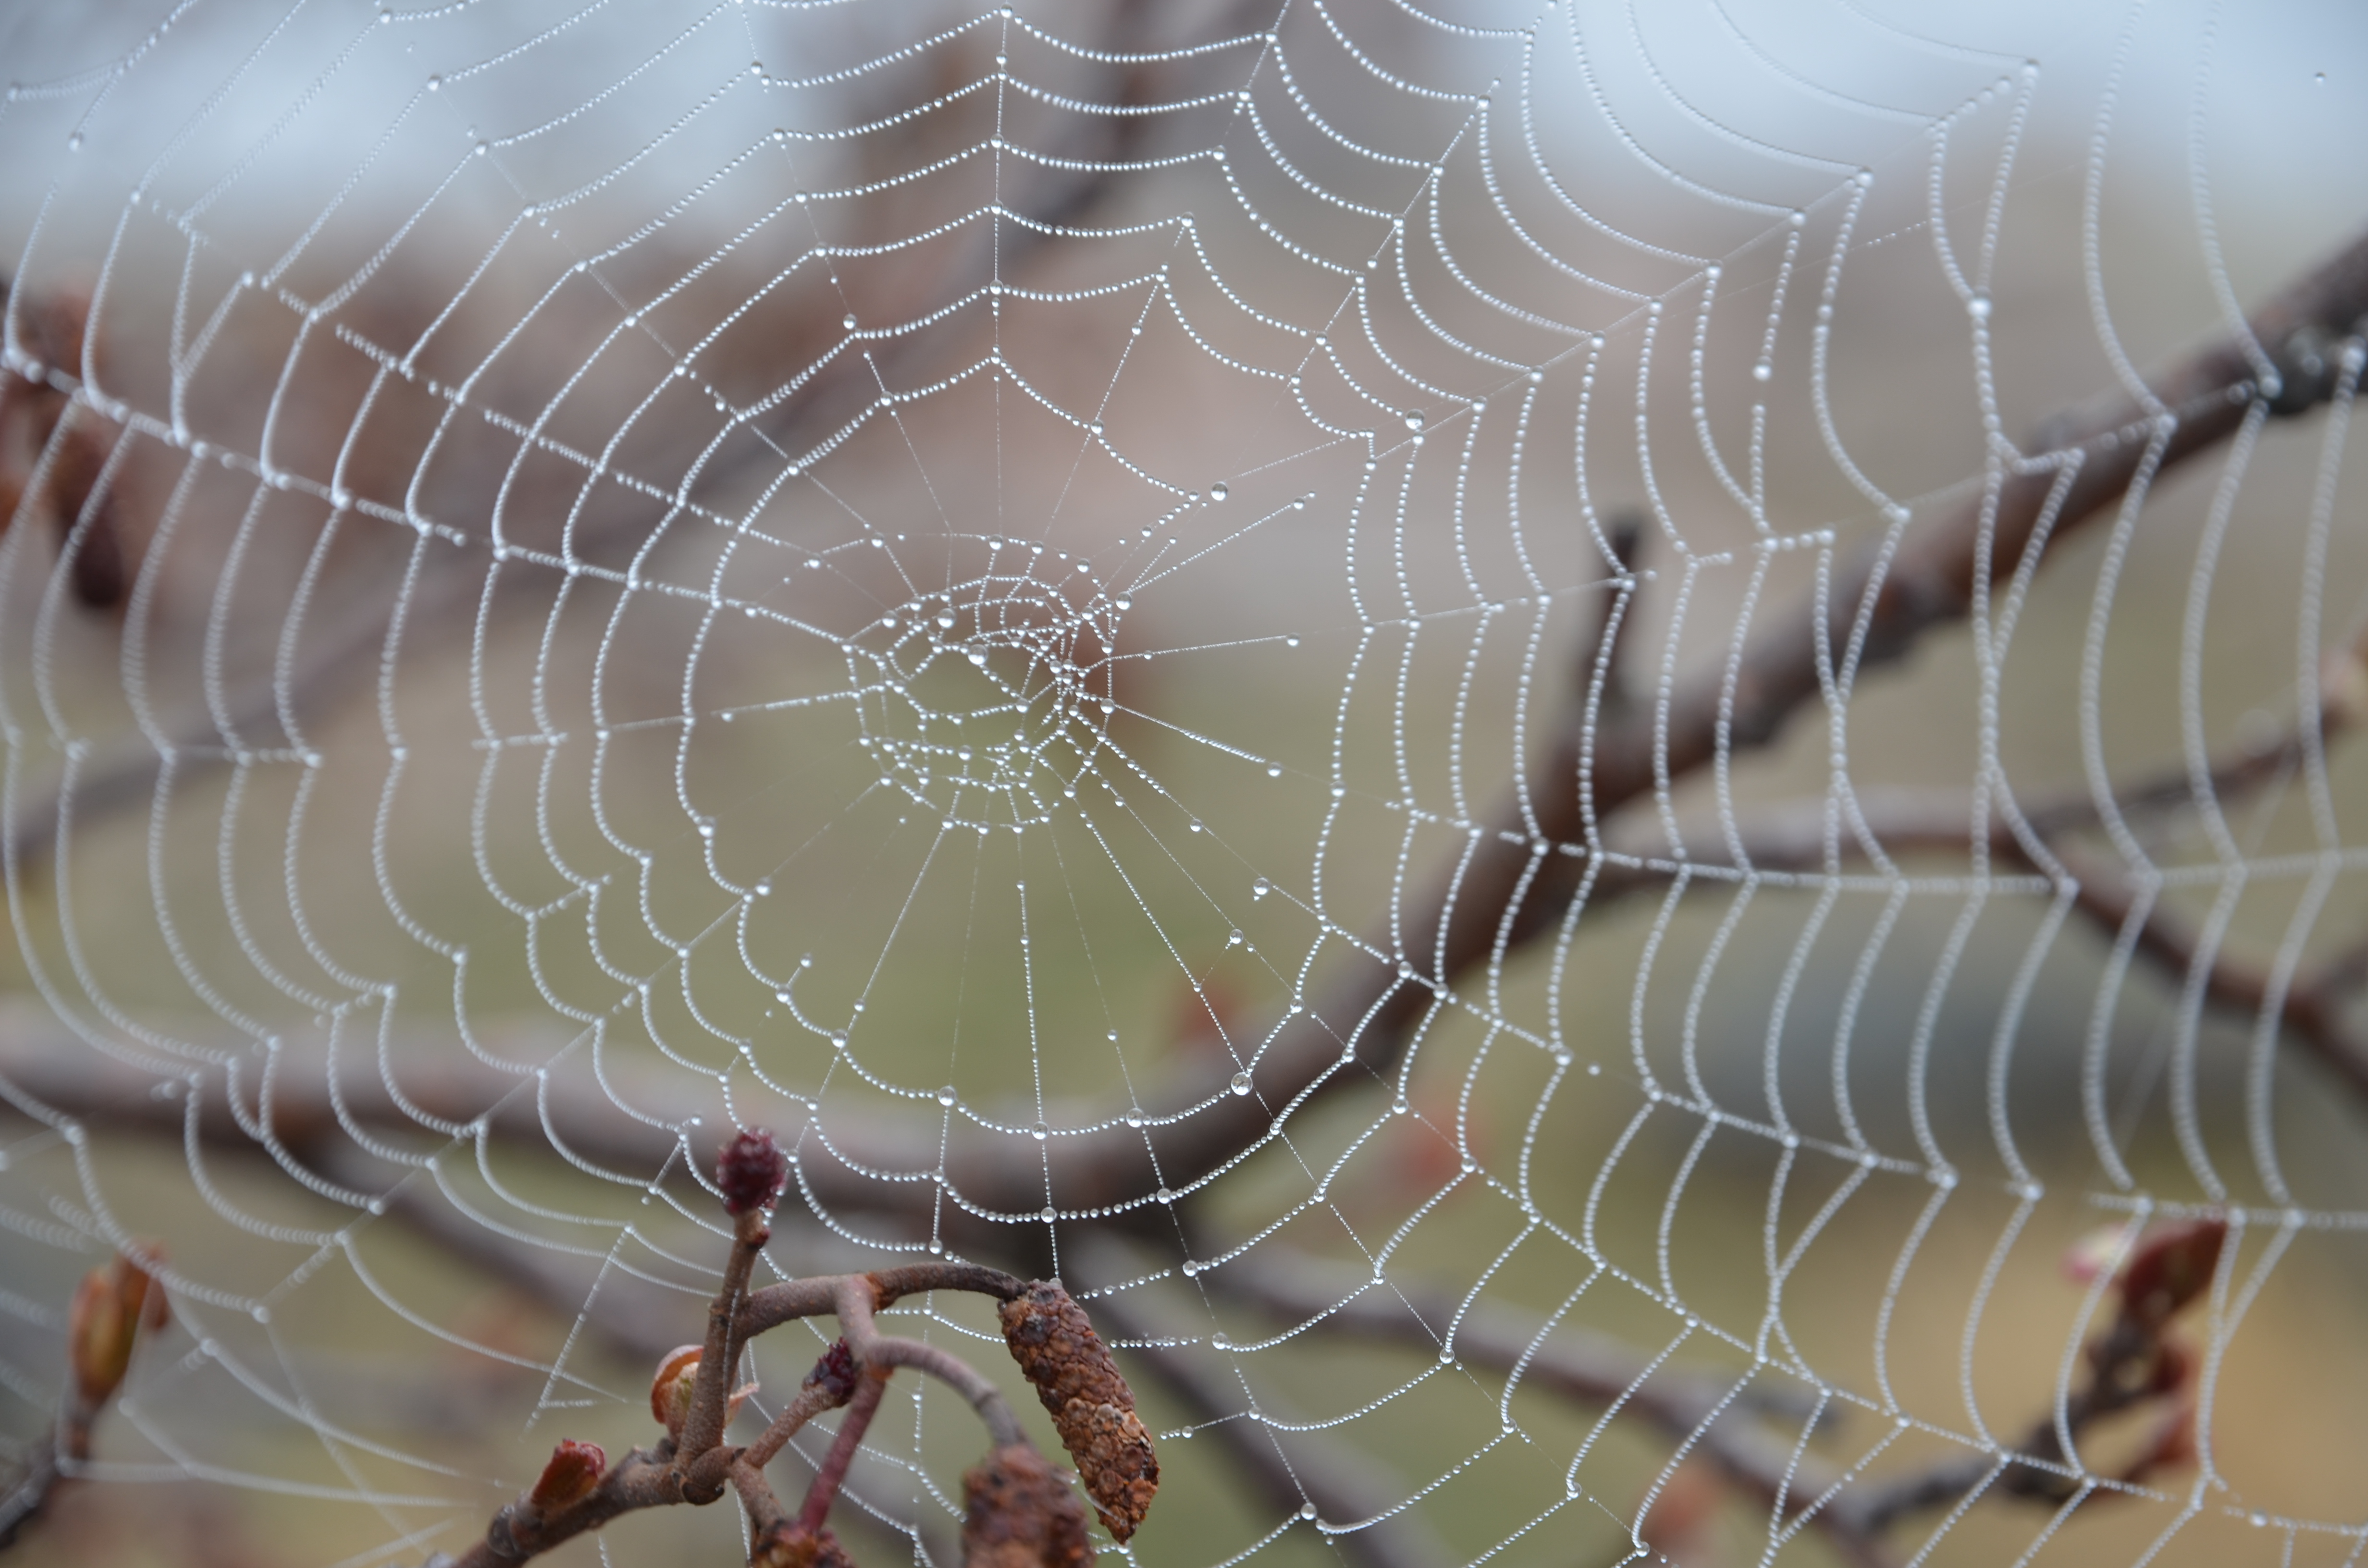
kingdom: Animalia
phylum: Arthropoda
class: Arachnida
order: Araneae
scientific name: Araneae
